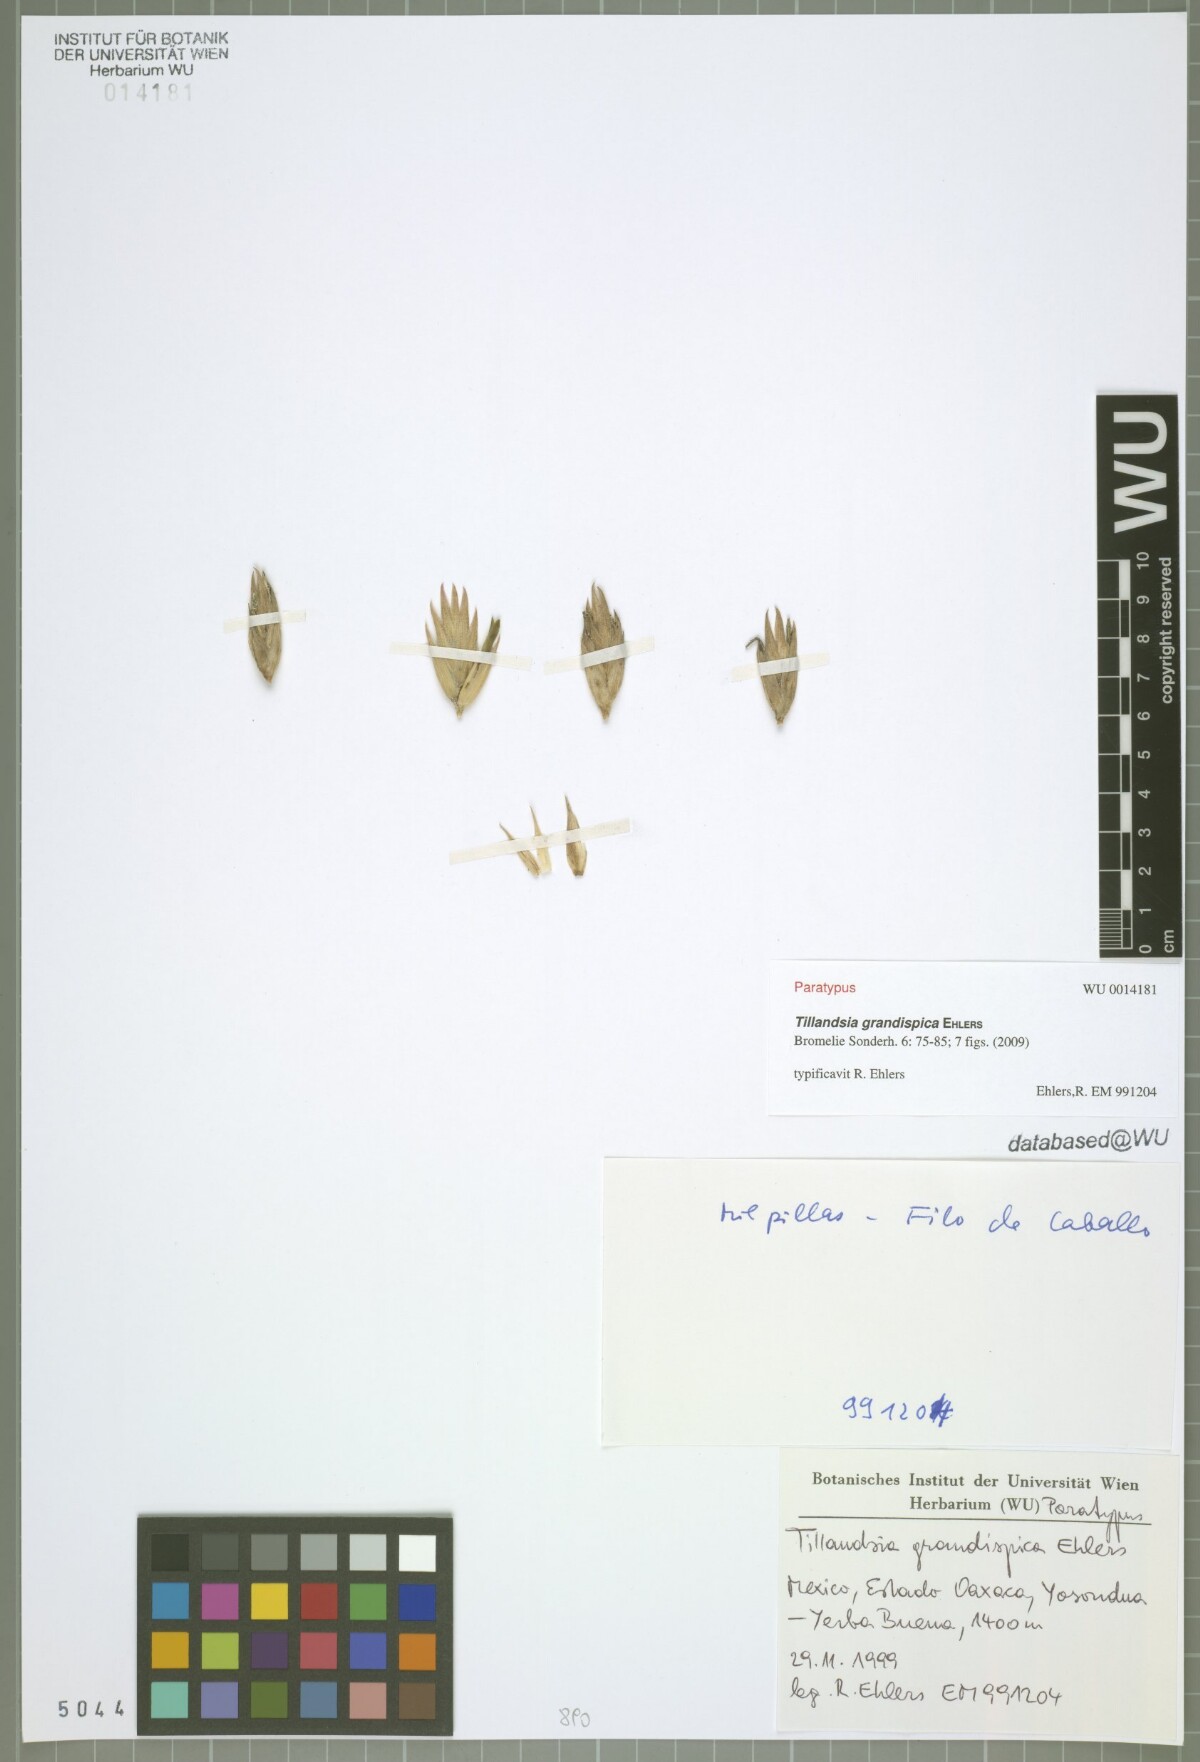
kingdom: Plantae
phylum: Tracheophyta
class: Liliopsida
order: Poales
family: Bromeliaceae
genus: Tillandsia
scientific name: Tillandsia grandispica
